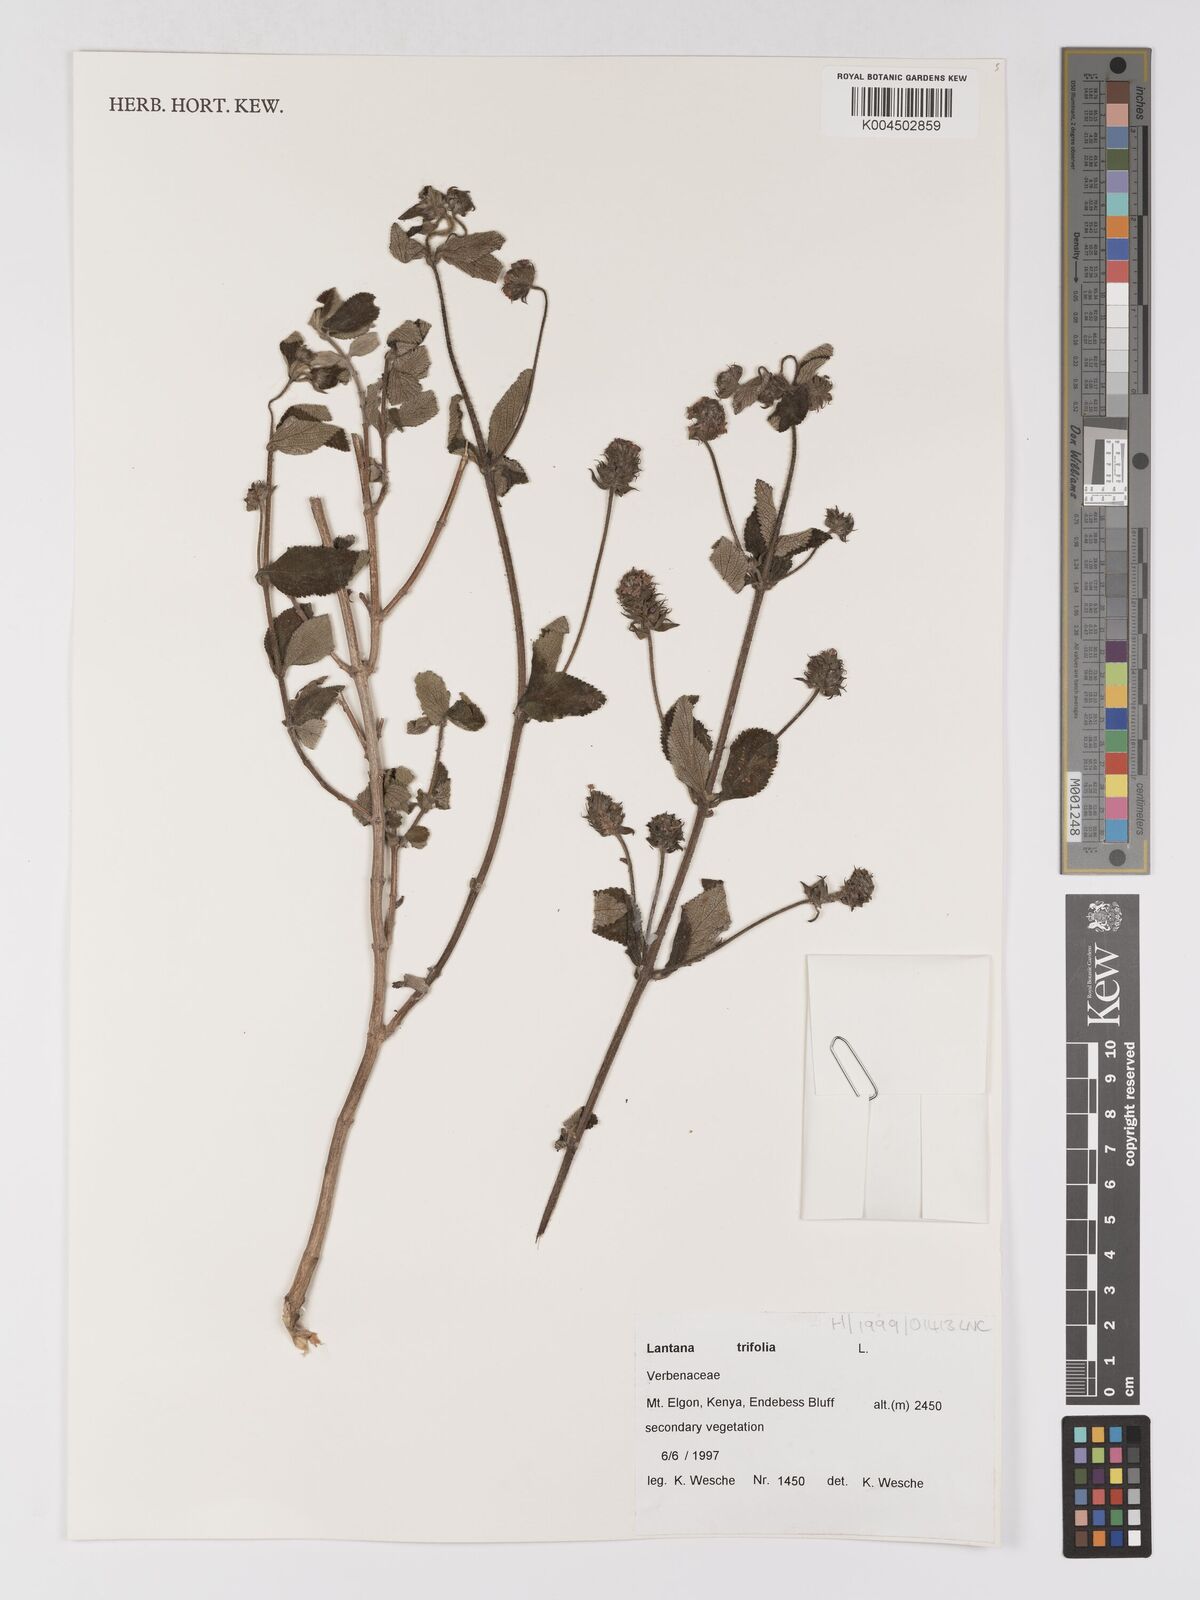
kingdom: Plantae
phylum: Tracheophyta
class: Magnoliopsida
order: Lamiales
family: Verbenaceae
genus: Lantana
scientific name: Lantana trifolia
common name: Sweet-sage
